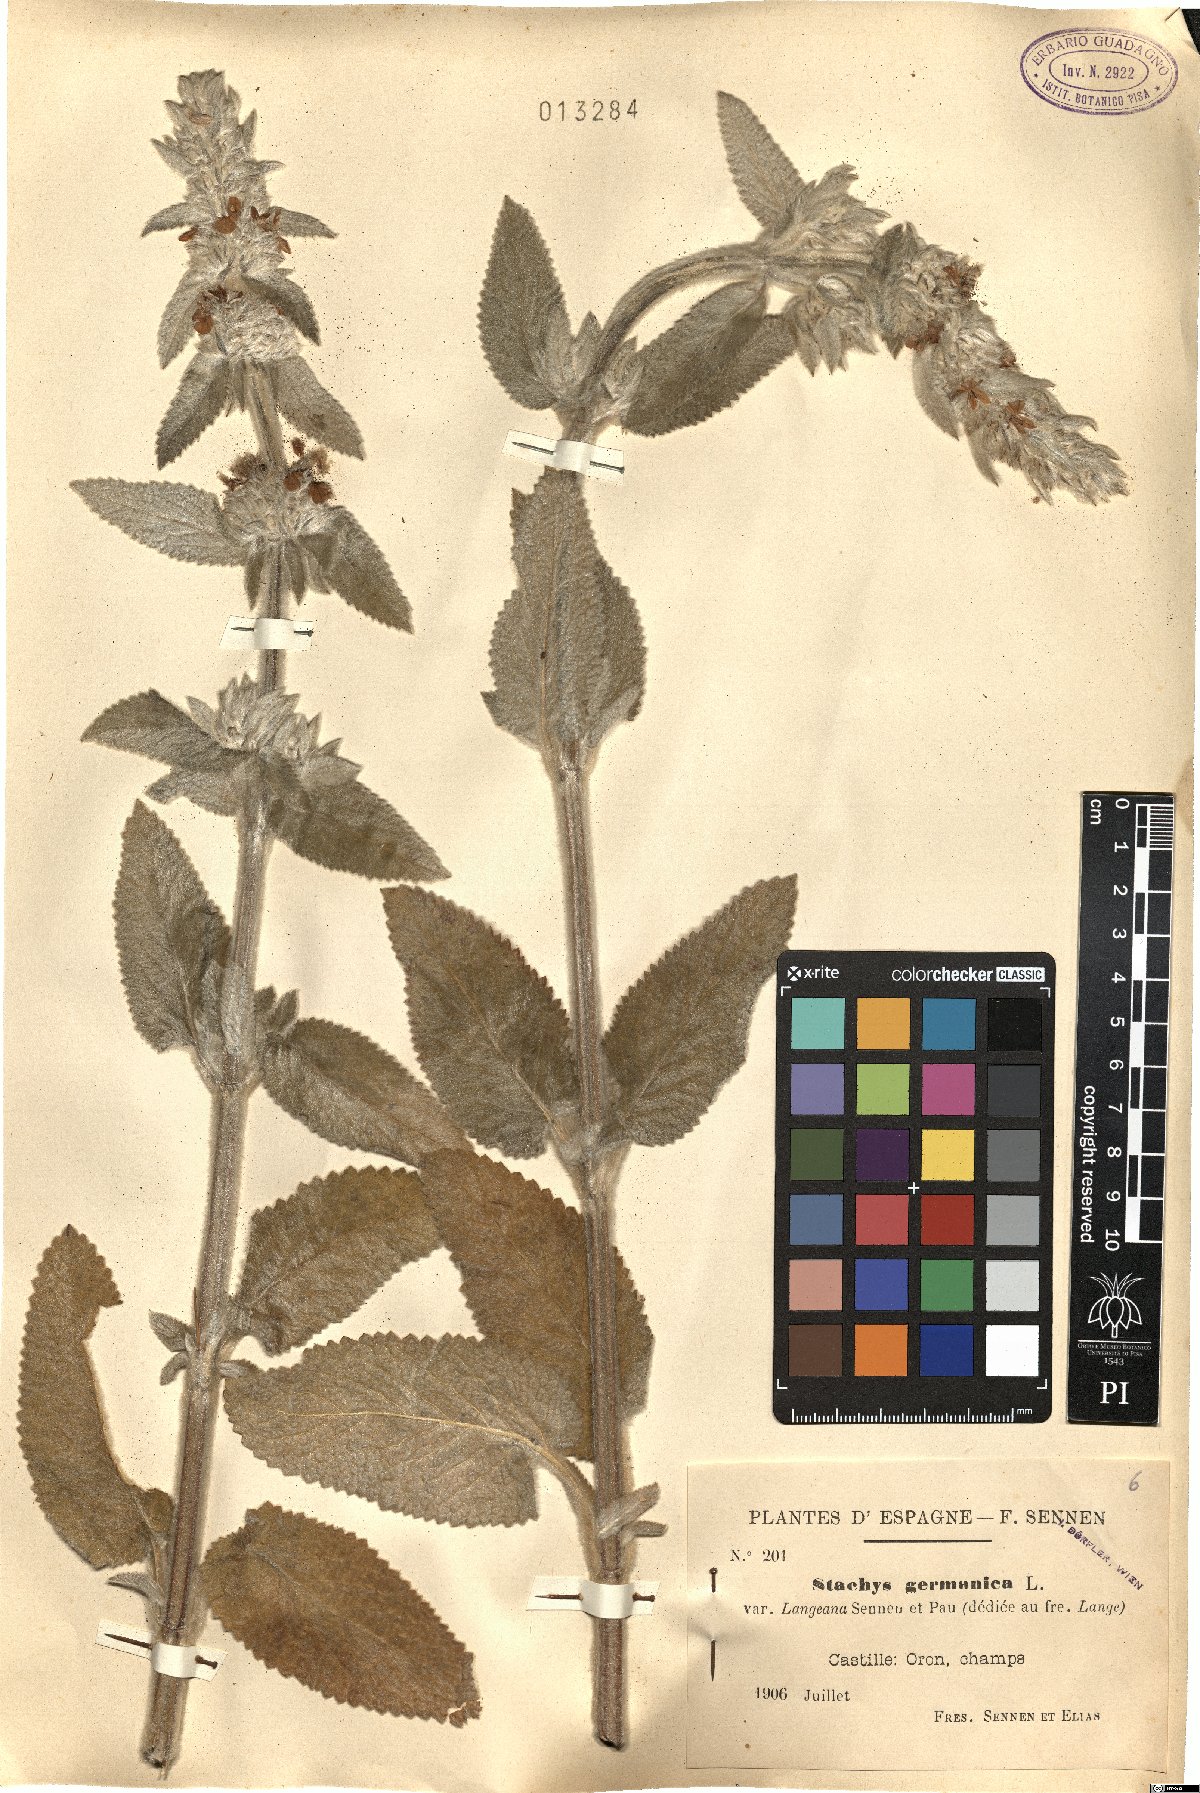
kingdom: Plantae
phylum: Tracheophyta
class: Magnoliopsida
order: Lamiales
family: Lamiaceae
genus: Stachys
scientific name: Stachys germanica
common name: Downy woundwort
